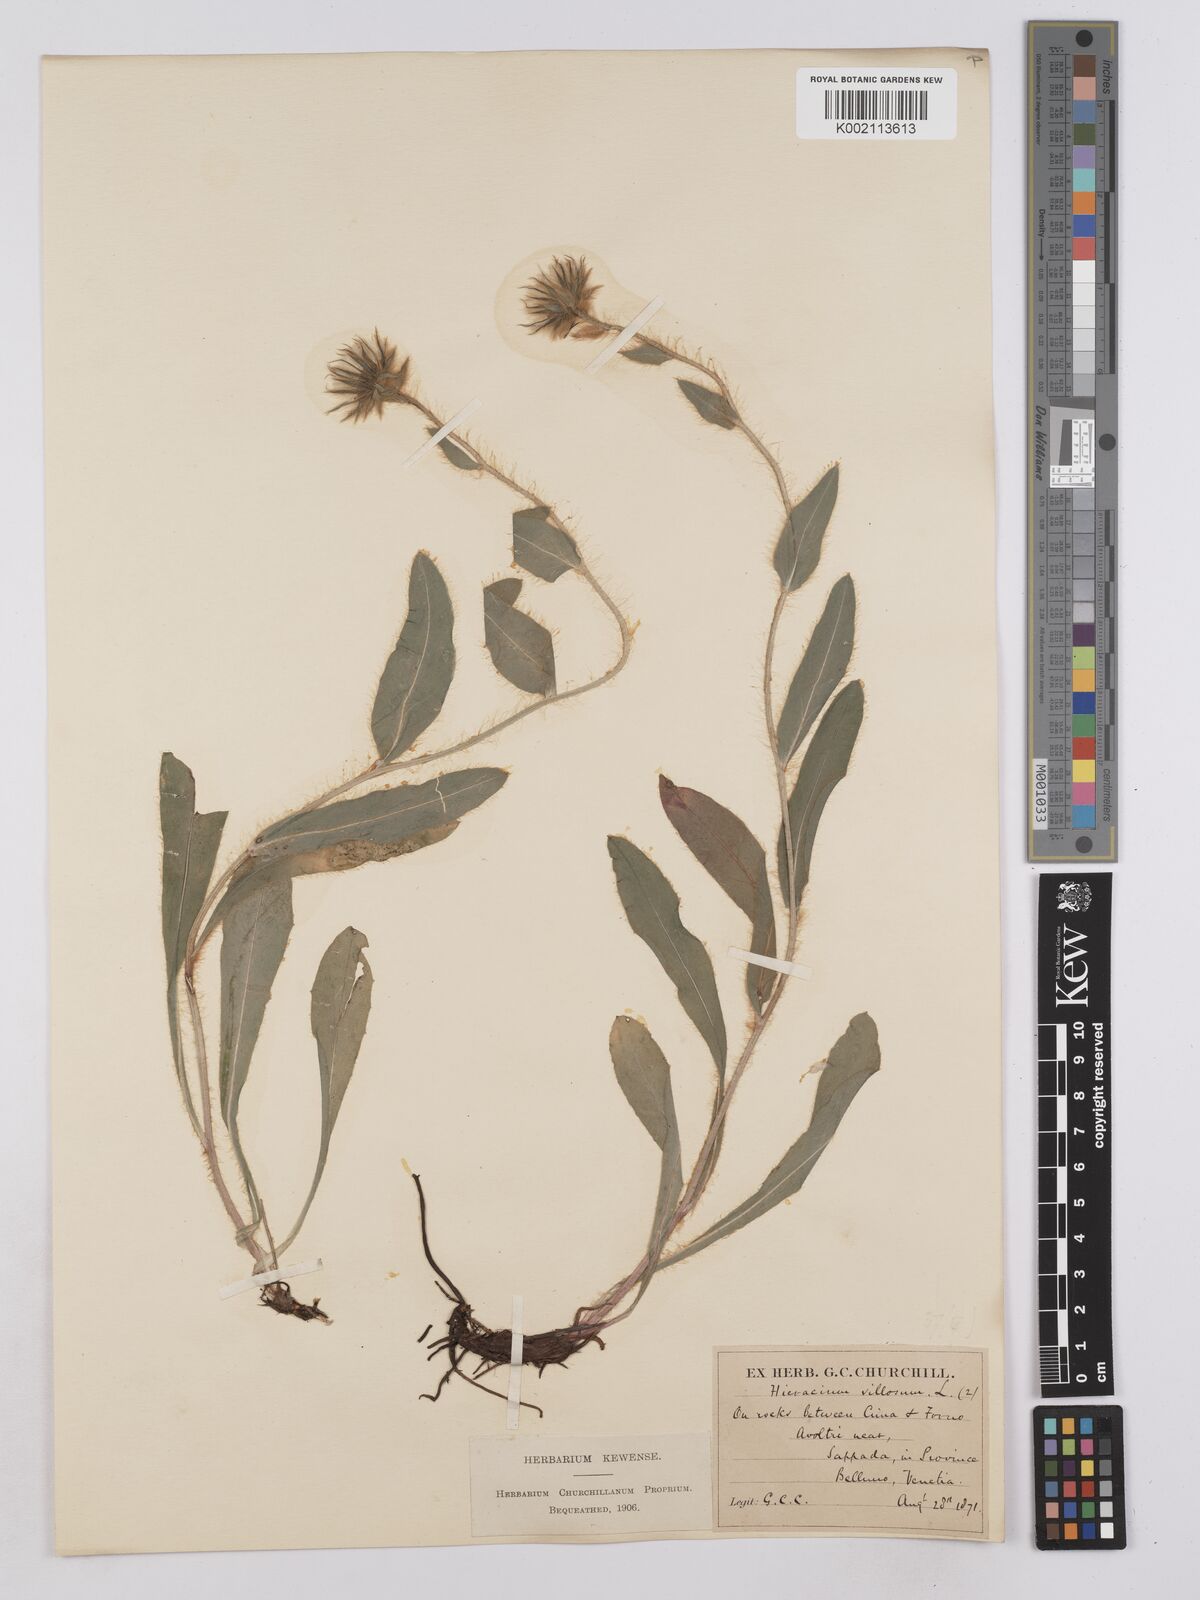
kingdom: Plantae
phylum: Tracheophyta
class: Magnoliopsida
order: Asterales
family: Asteraceae
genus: Hieracium
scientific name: Hieracium villosum
